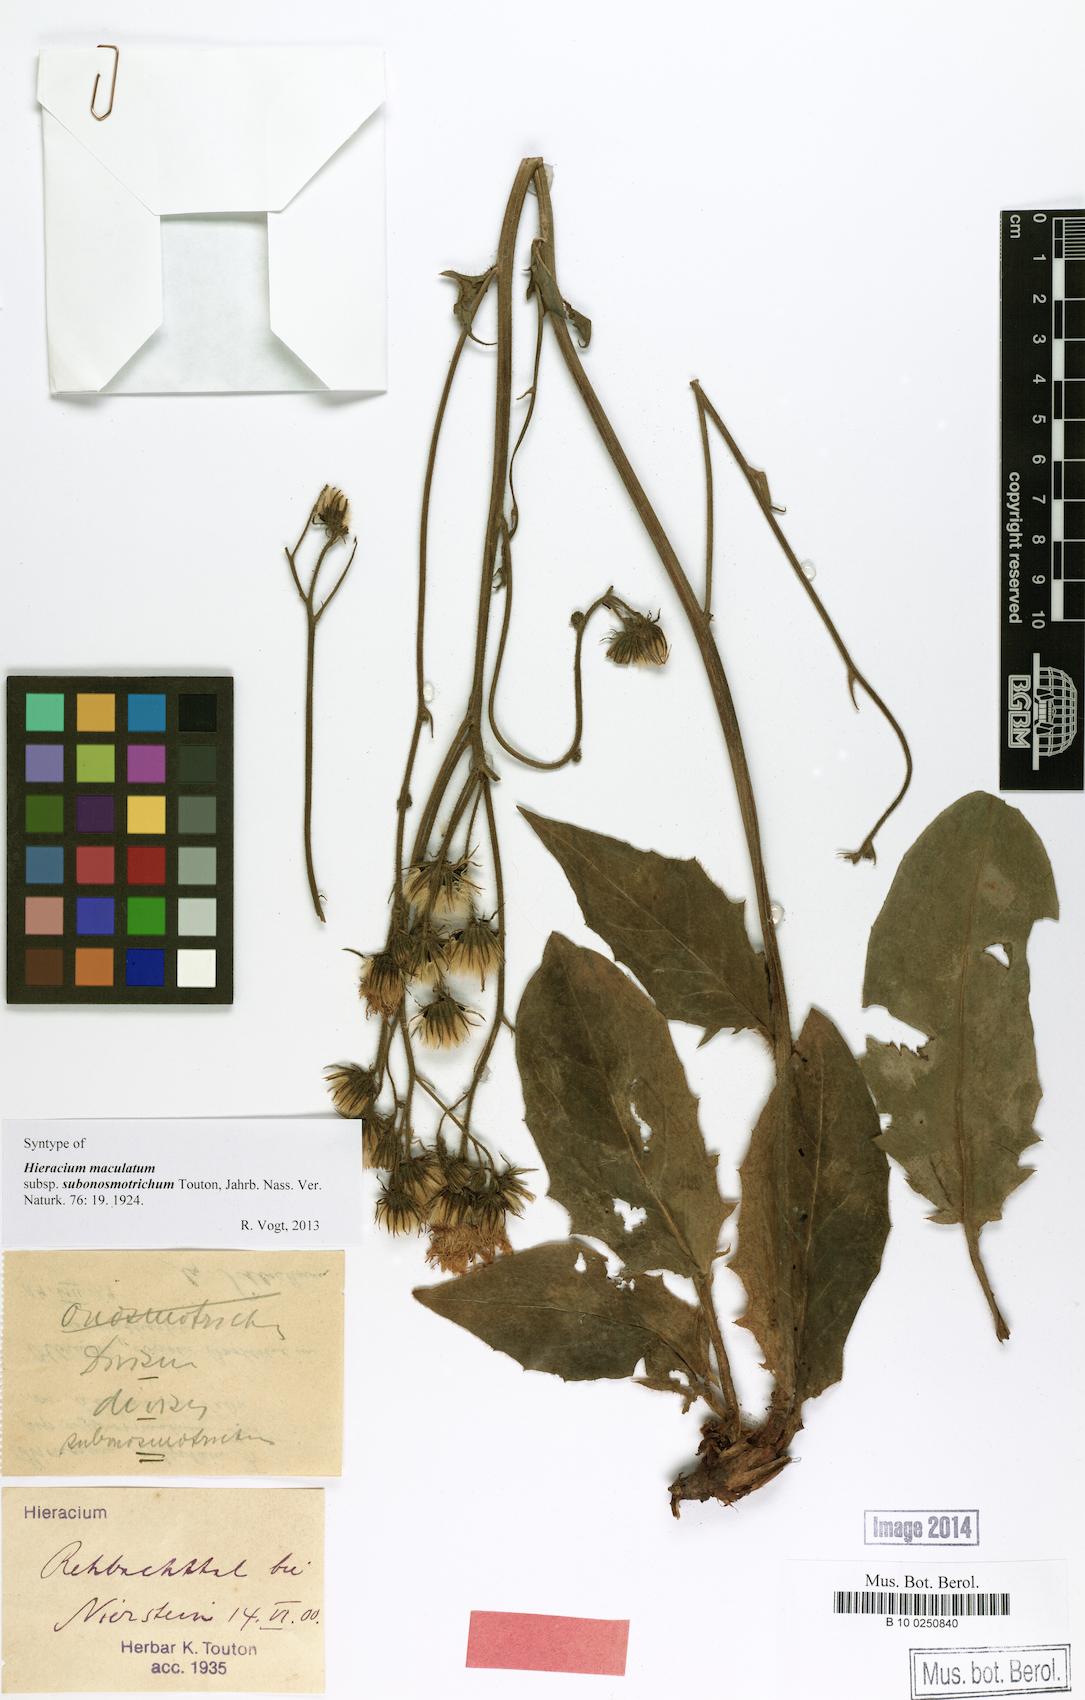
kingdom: Plantae
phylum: Tracheophyta
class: Magnoliopsida
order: Asterales
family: Asteraceae
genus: Hieracium
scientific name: Hieracium maculatum
